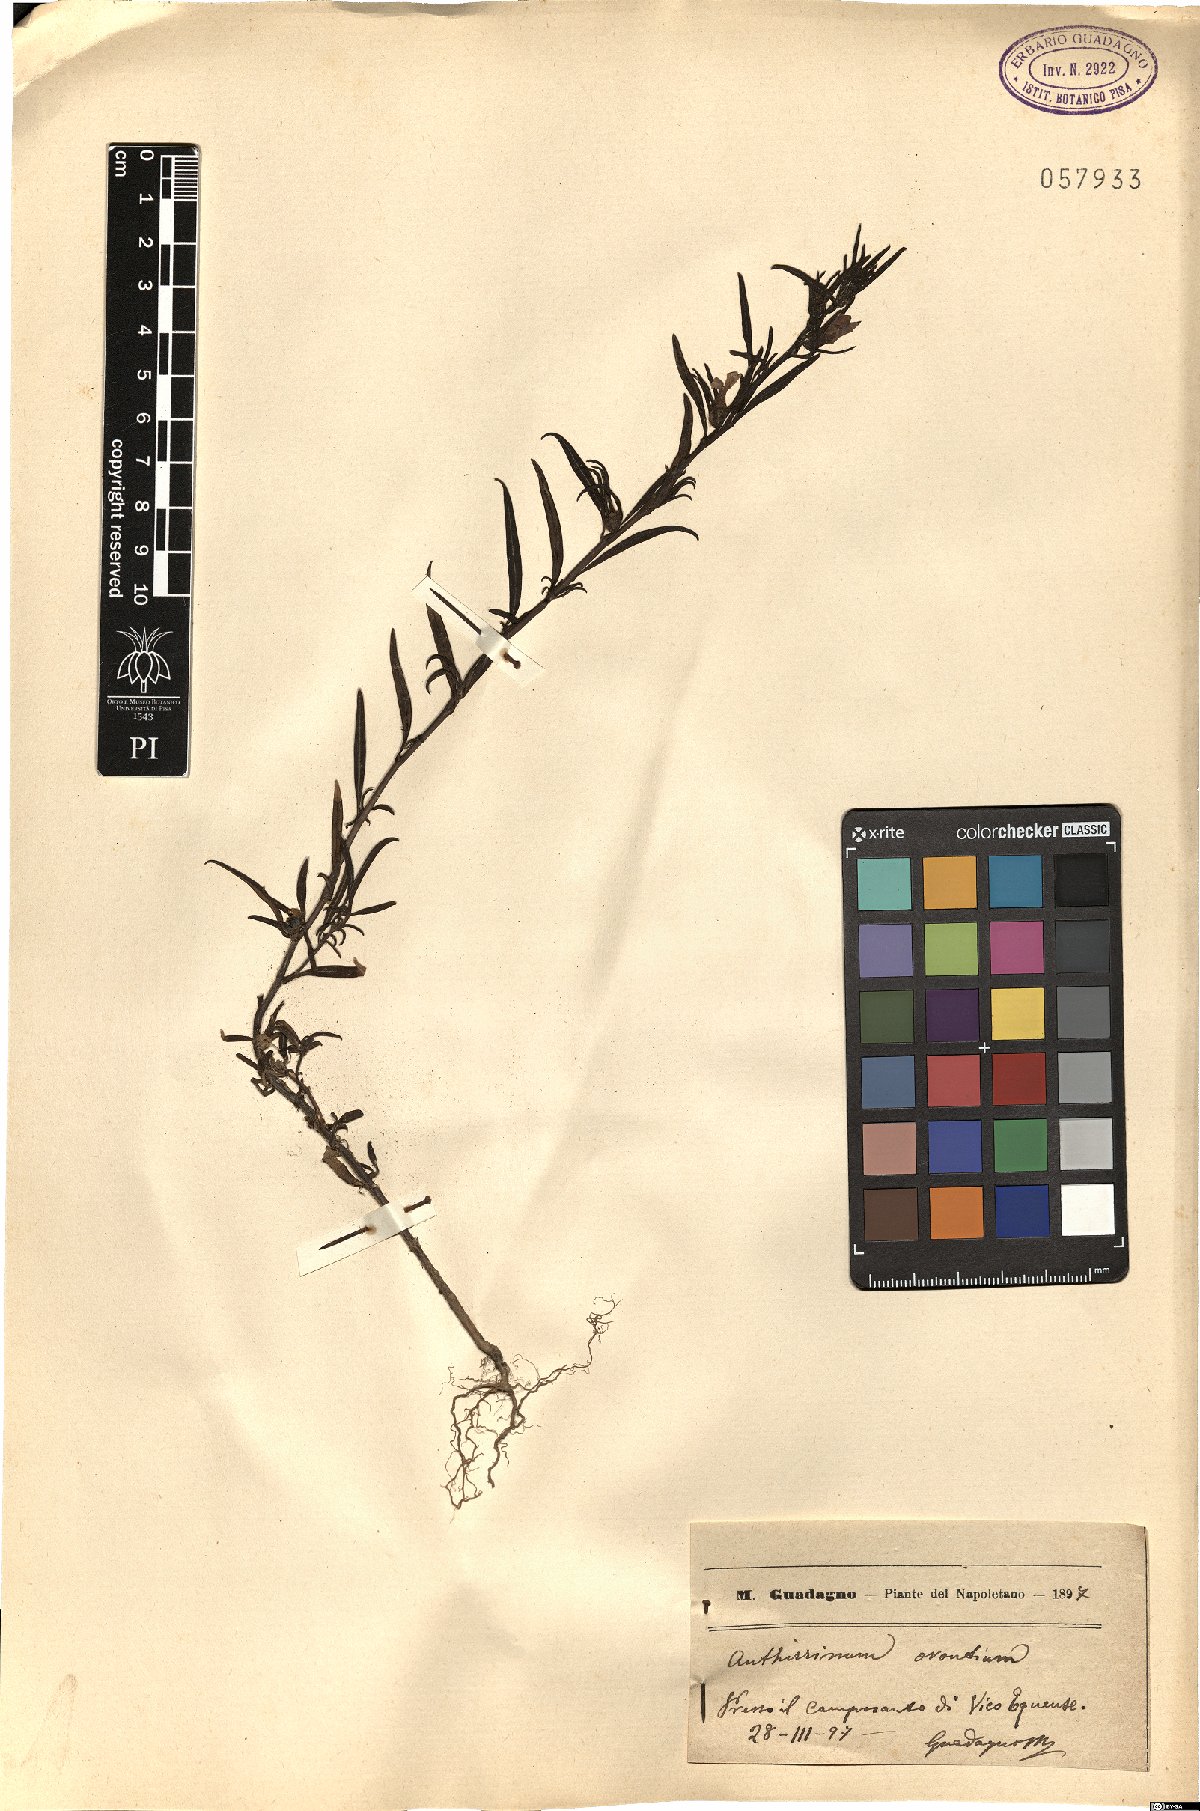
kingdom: Plantae
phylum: Tracheophyta
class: Magnoliopsida
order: Lamiales
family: Plantaginaceae
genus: Misopates
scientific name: Misopates orontium
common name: Weasel's-snout
